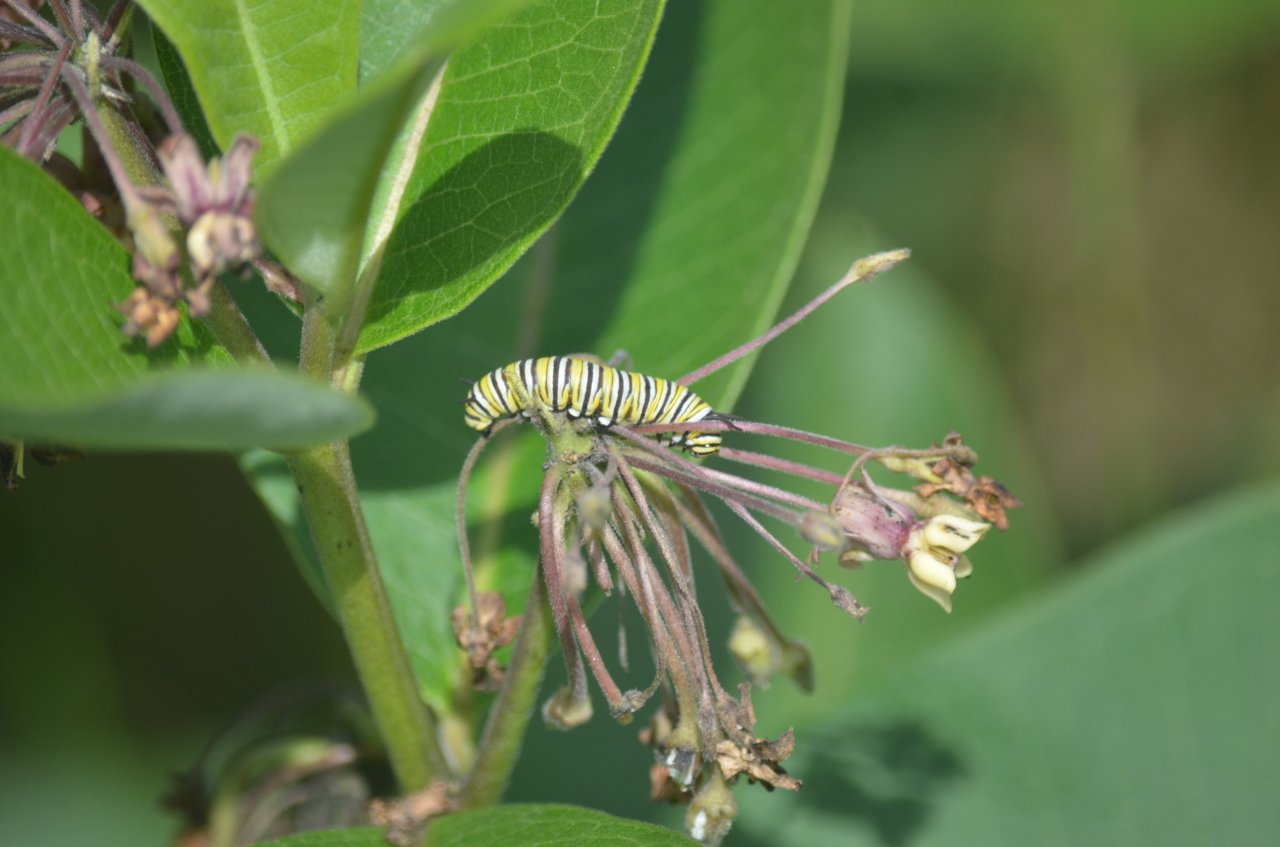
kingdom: Animalia
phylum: Arthropoda
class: Insecta
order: Lepidoptera
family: Nymphalidae
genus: Danaus
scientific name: Danaus plexippus
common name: Monarch
